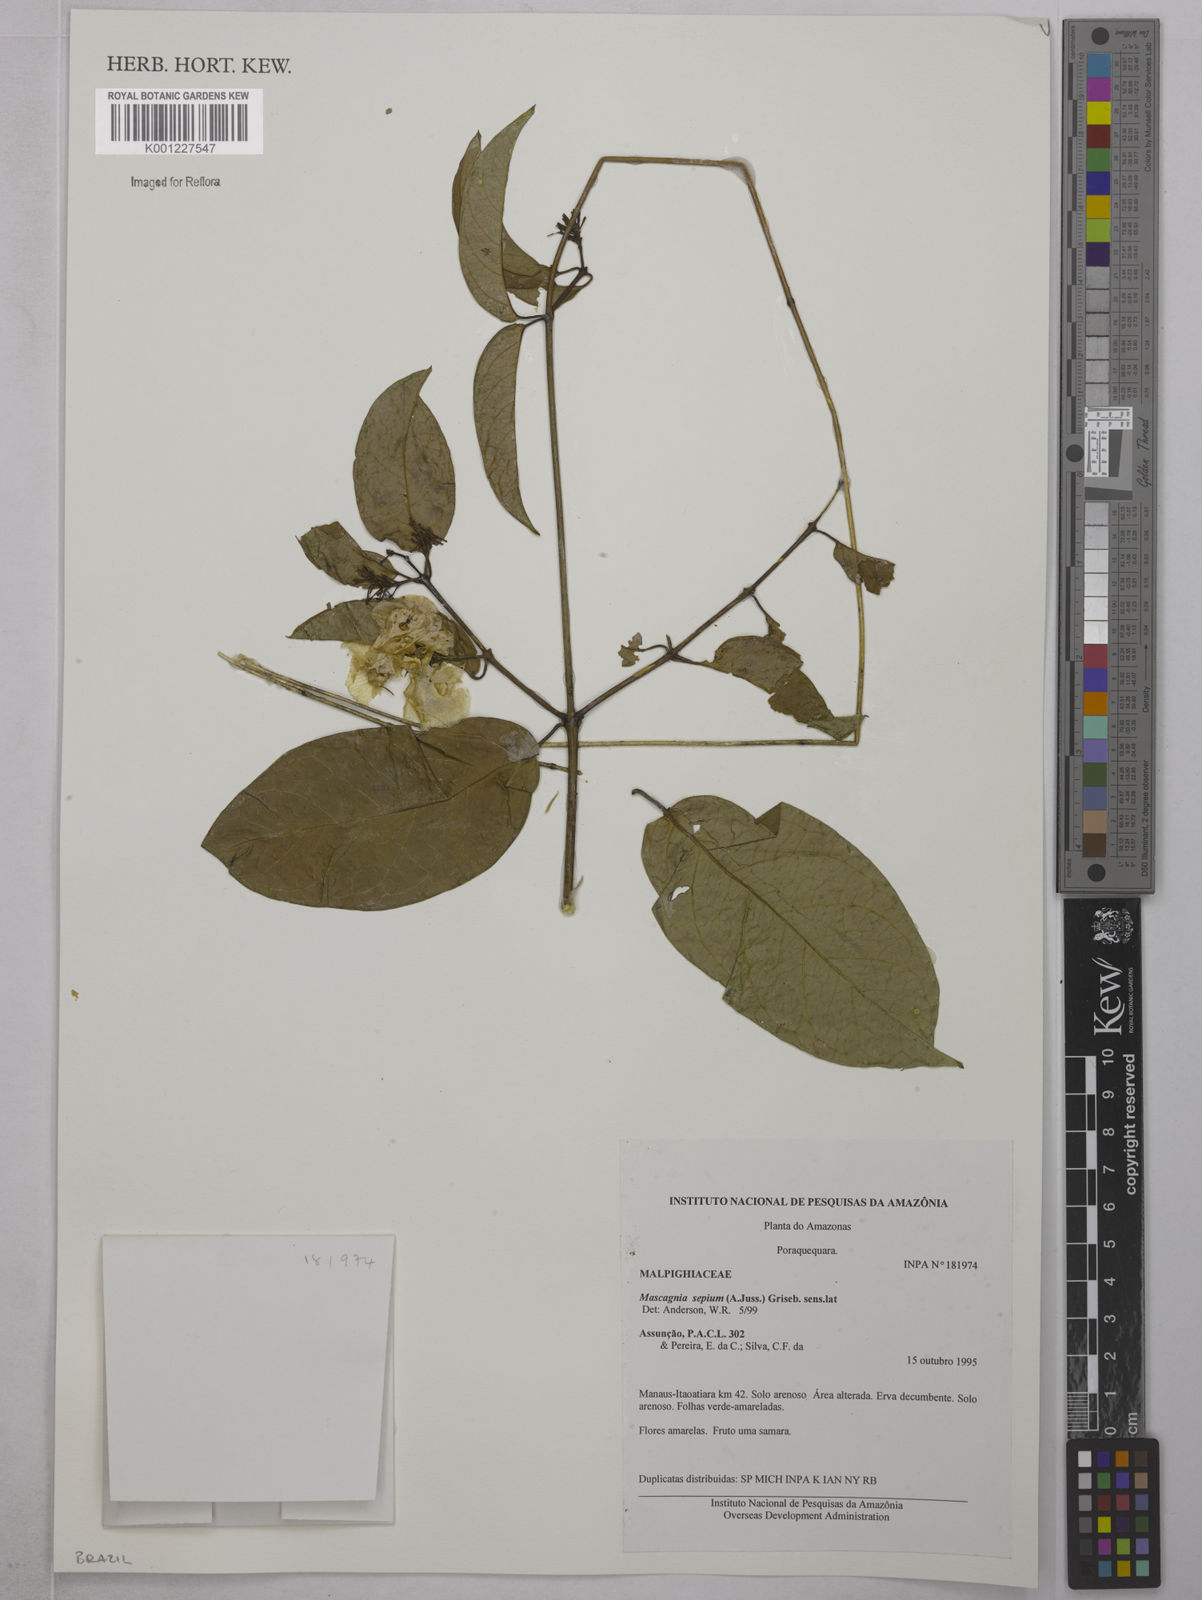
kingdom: Plantae
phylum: Tracheophyta
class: Magnoliopsida
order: Malpighiales
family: Malpighiaceae
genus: Mascagnia
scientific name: Mascagnia sepium
